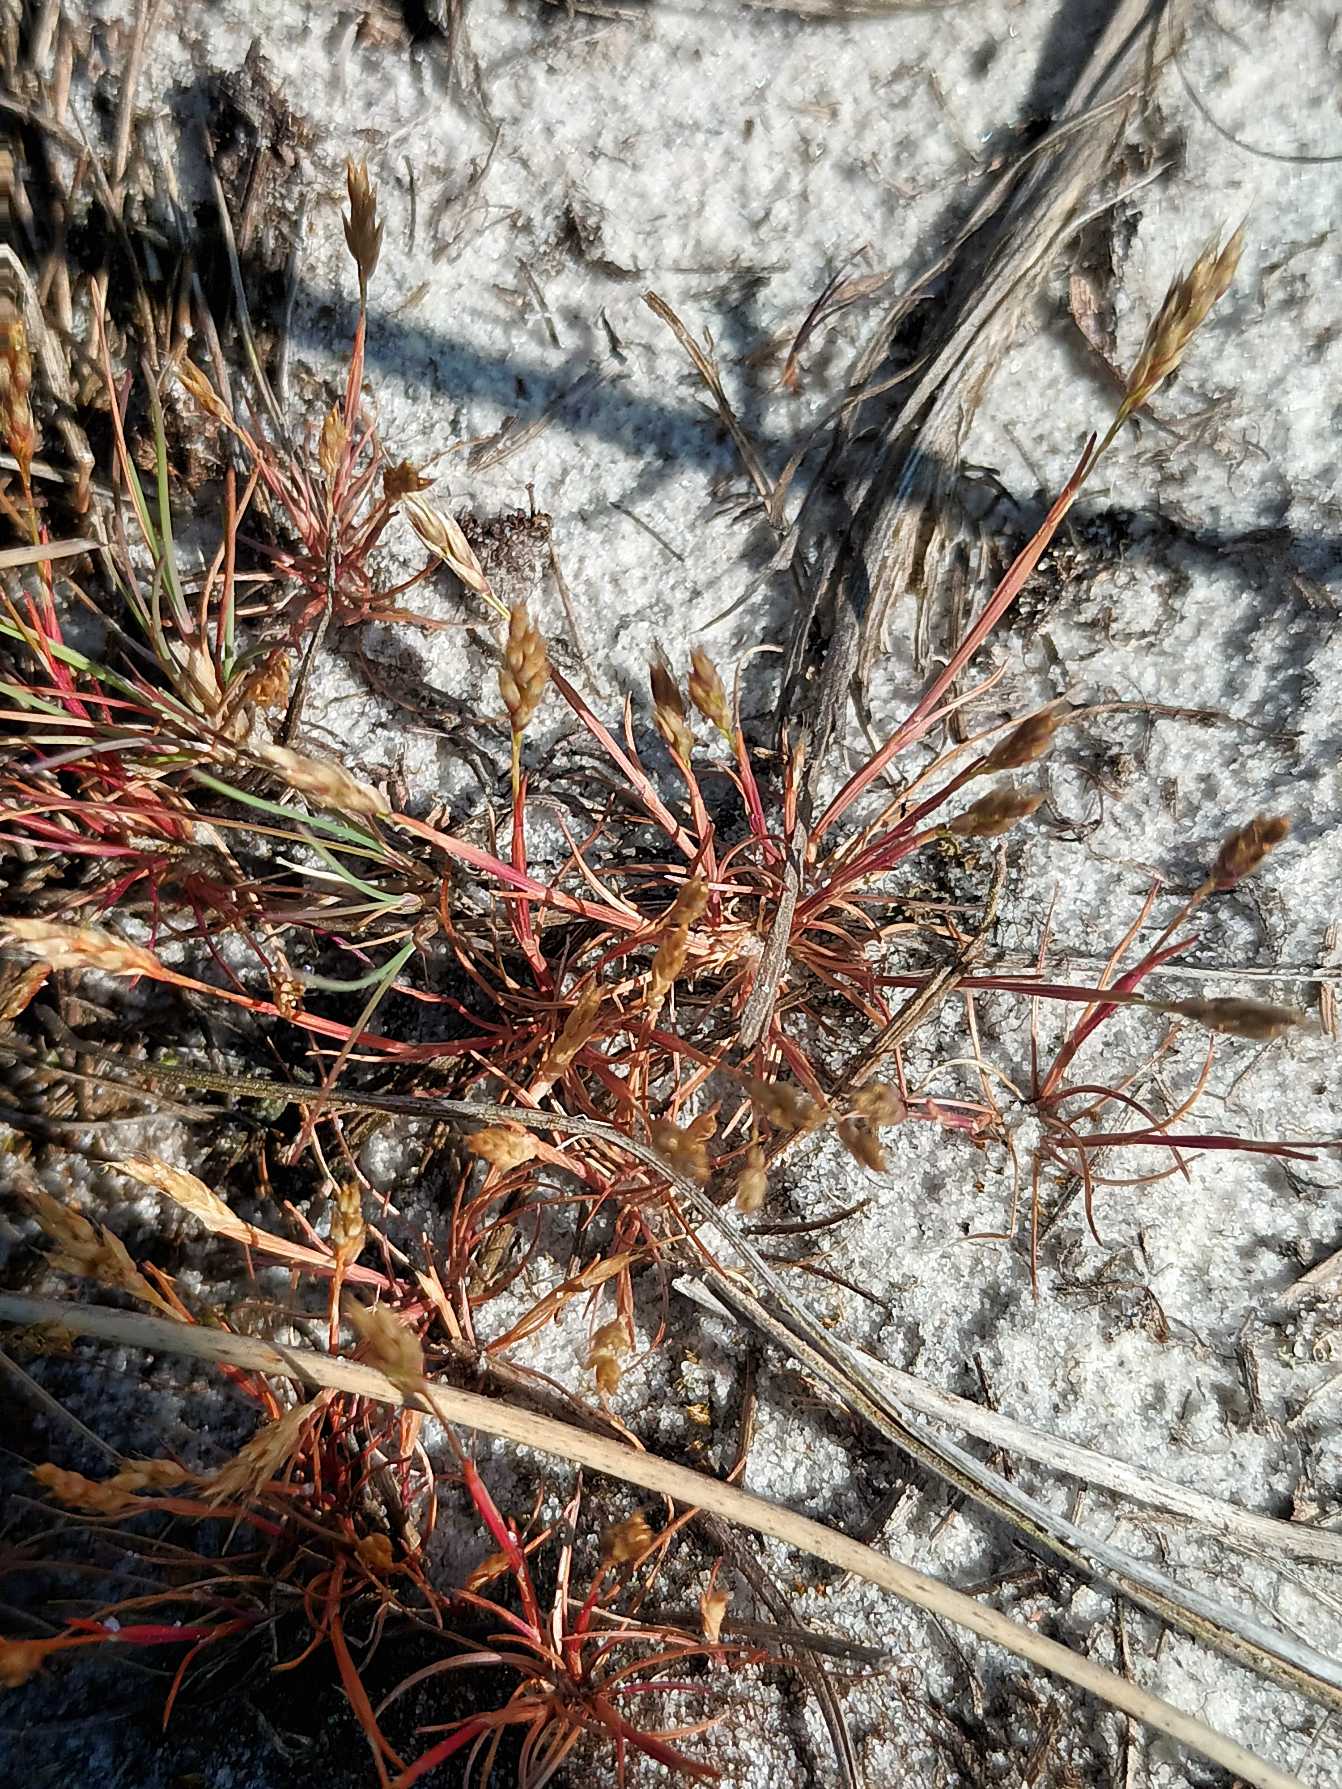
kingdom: Plantae
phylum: Tracheophyta
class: Liliopsida
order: Poales
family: Poaceae
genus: Aira
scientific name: Aira praecox
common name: Tidlig dværgbunke
